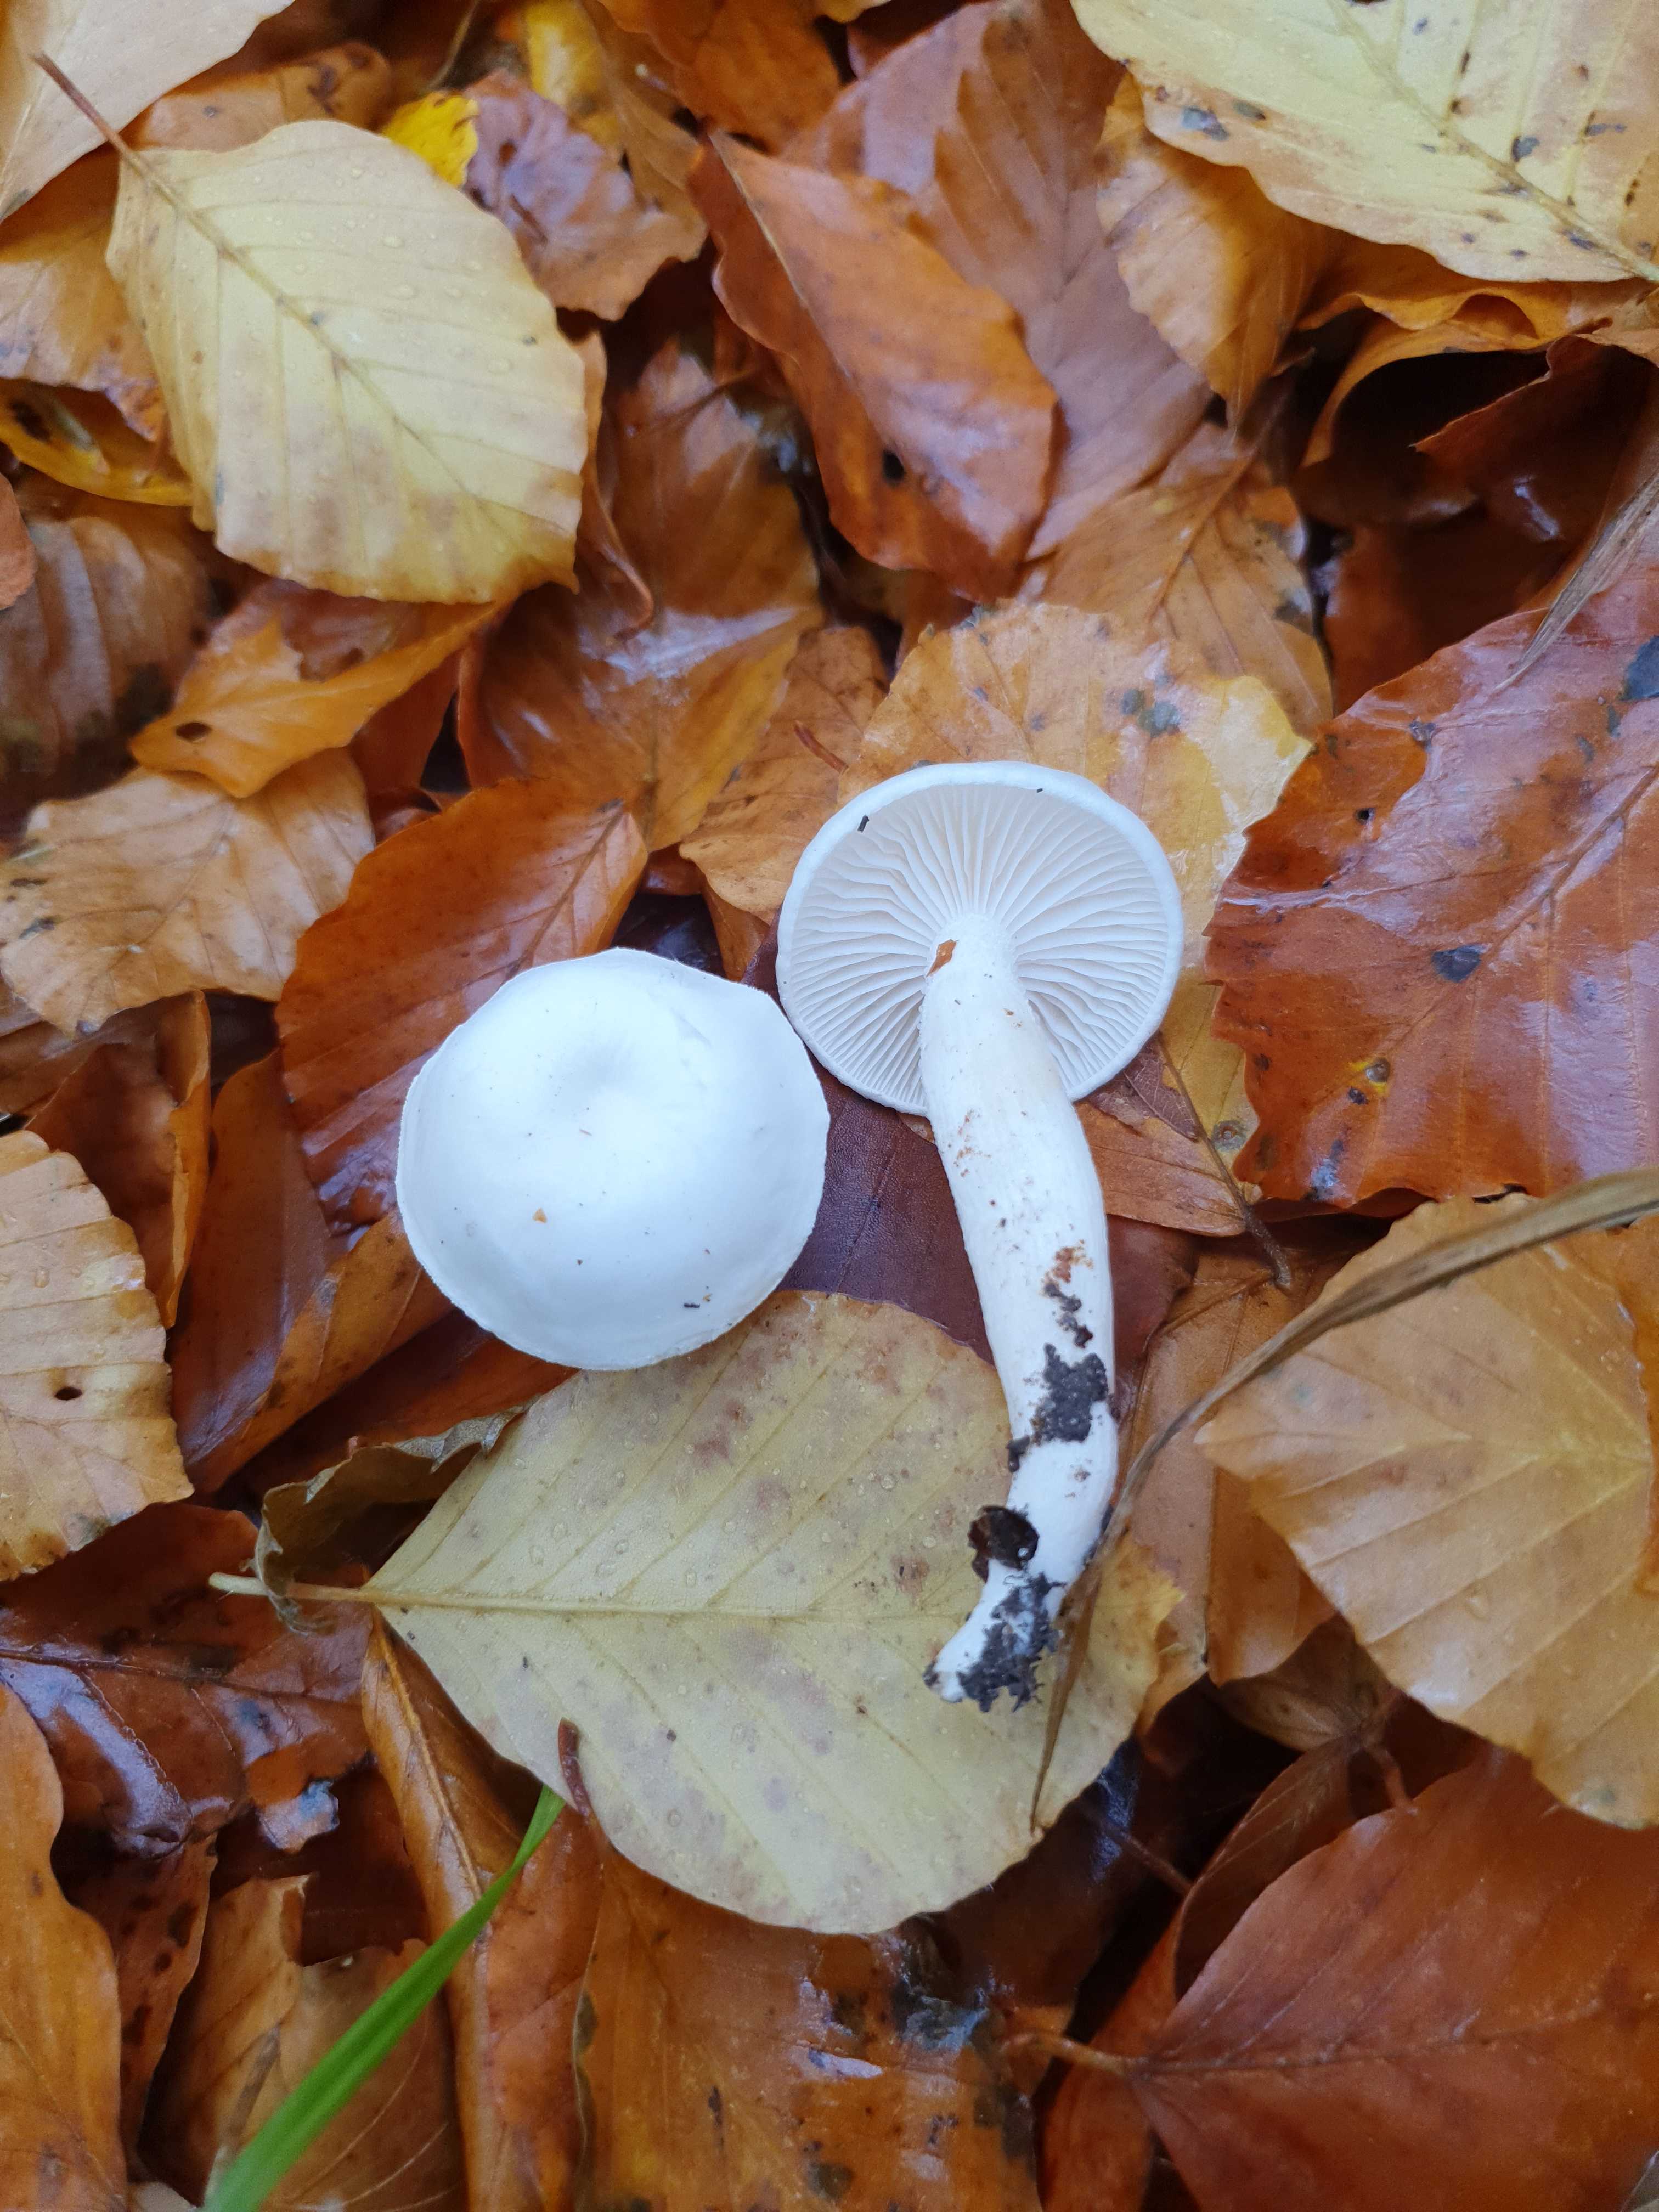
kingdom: Fungi
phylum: Basidiomycota
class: Agaricomycetes
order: Agaricales
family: Hygrophoraceae
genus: Hygrophorus
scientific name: Hygrophorus eburneus
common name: elfenbens-sneglehat
